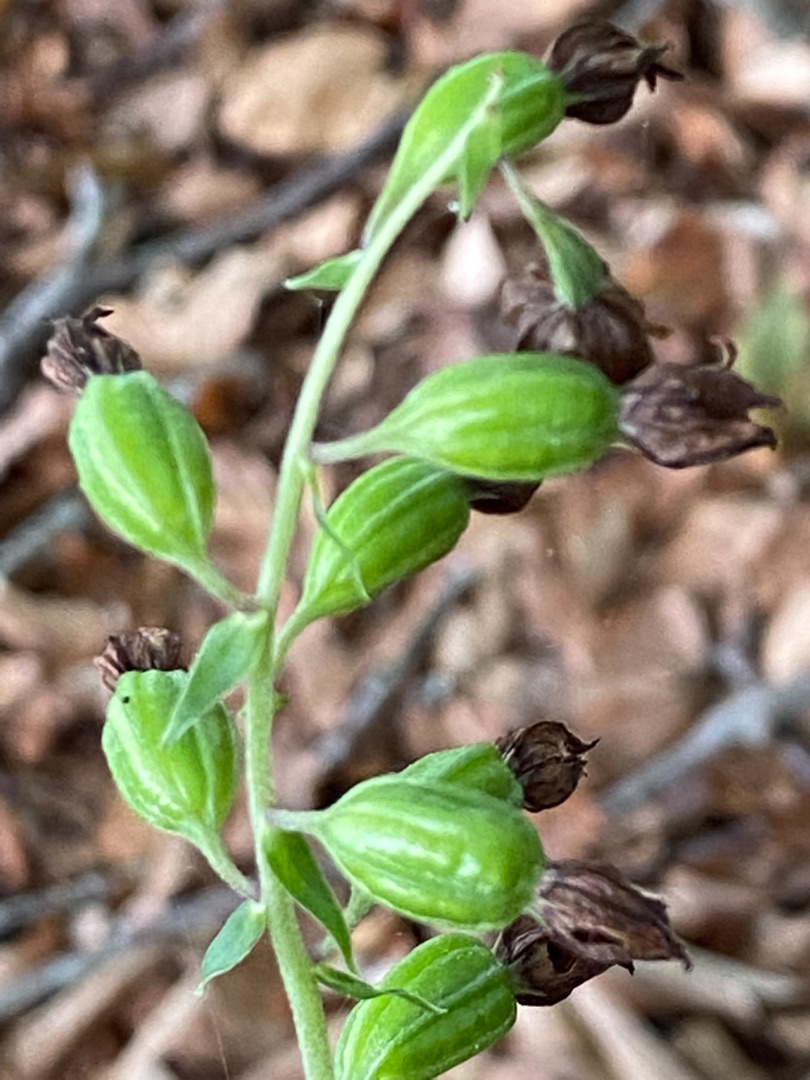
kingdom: Plantae
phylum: Tracheophyta
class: Liliopsida
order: Asparagales
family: Orchidaceae
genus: Epipactis
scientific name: Epipactis helleborine
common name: Skov-hullæbe
